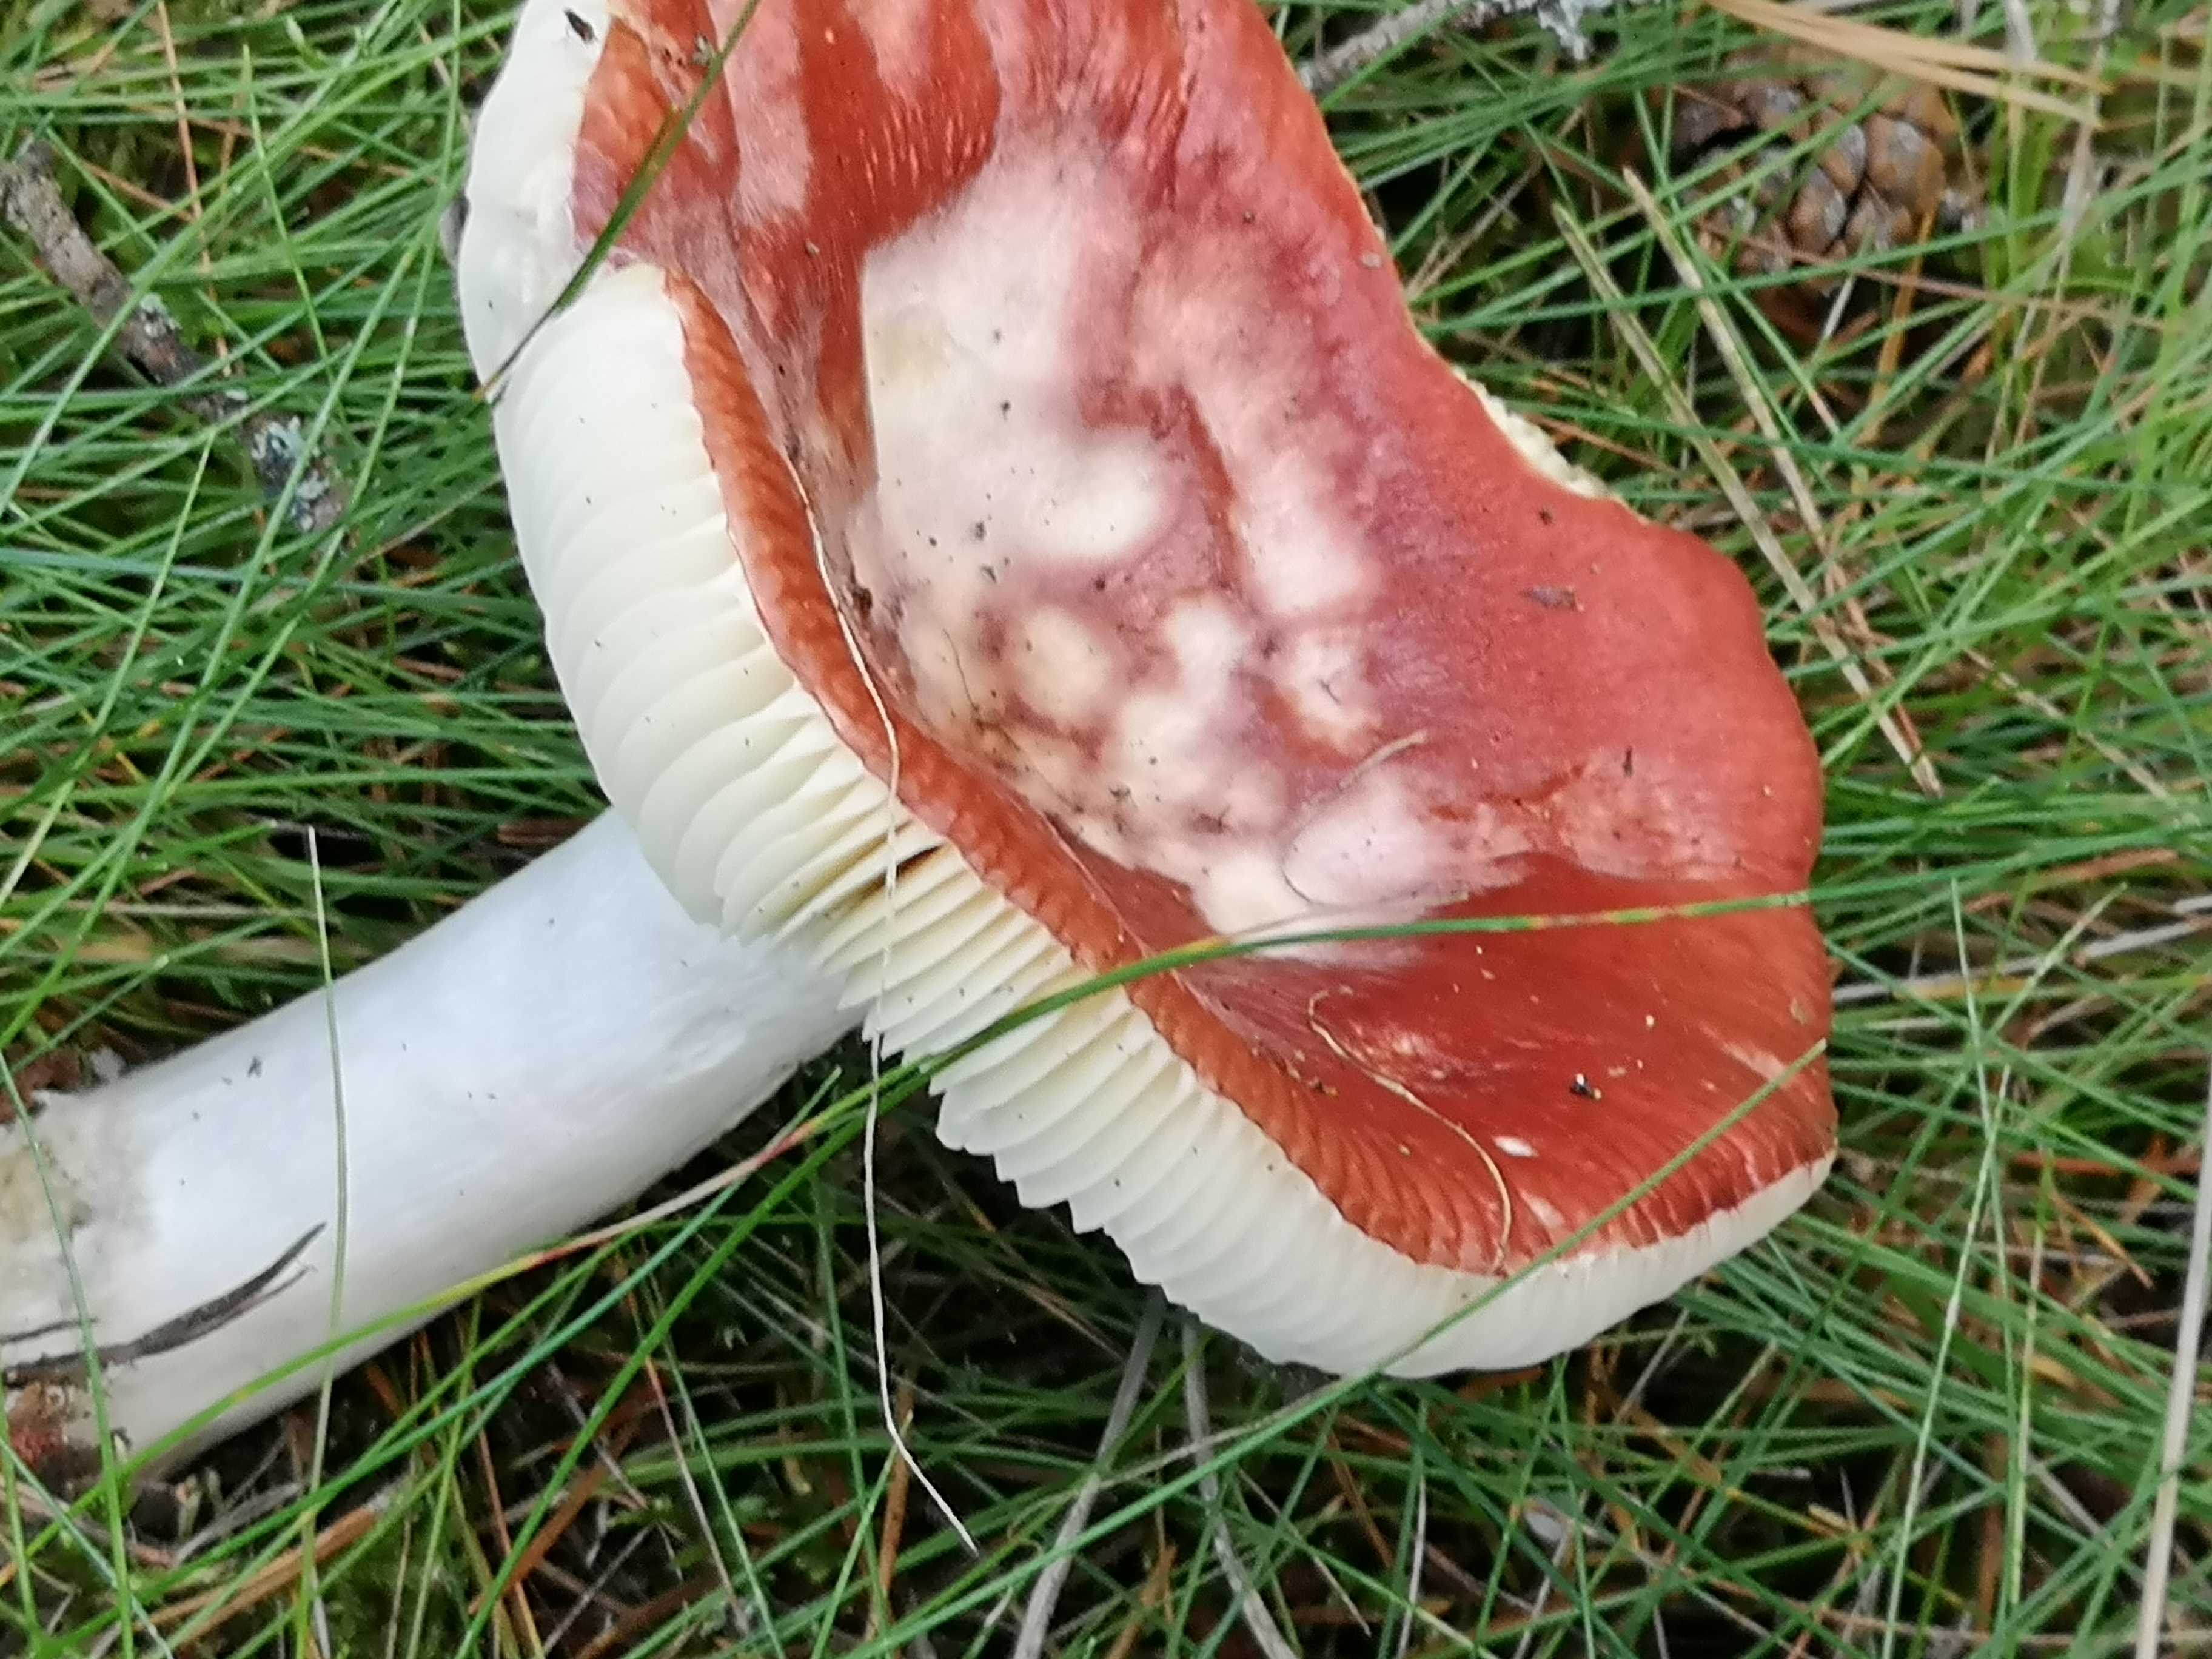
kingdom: Fungi
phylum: Basidiomycota
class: Agaricomycetes
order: Russulales
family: Russulaceae
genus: Russula
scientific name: Russula paludosa
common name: prægtig skørhat
